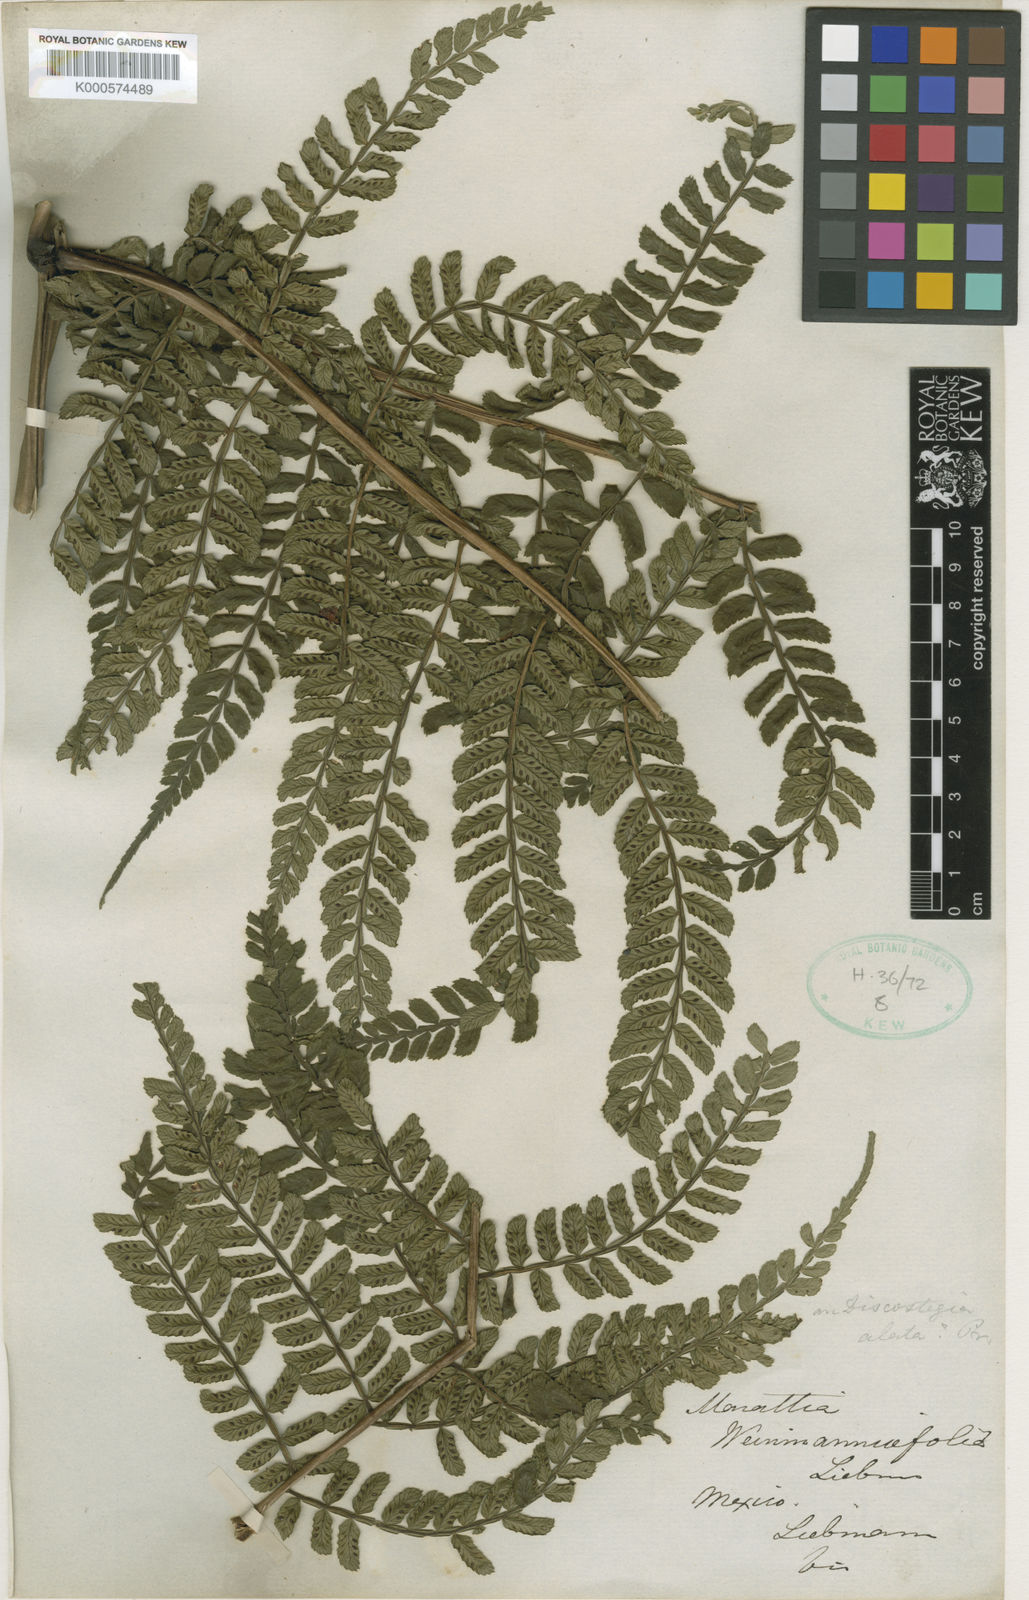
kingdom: Plantae
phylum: Tracheophyta
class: Polypodiopsida
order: Marattiales
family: Marattiaceae
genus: Marattia
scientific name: Marattia weinmanniifolia
